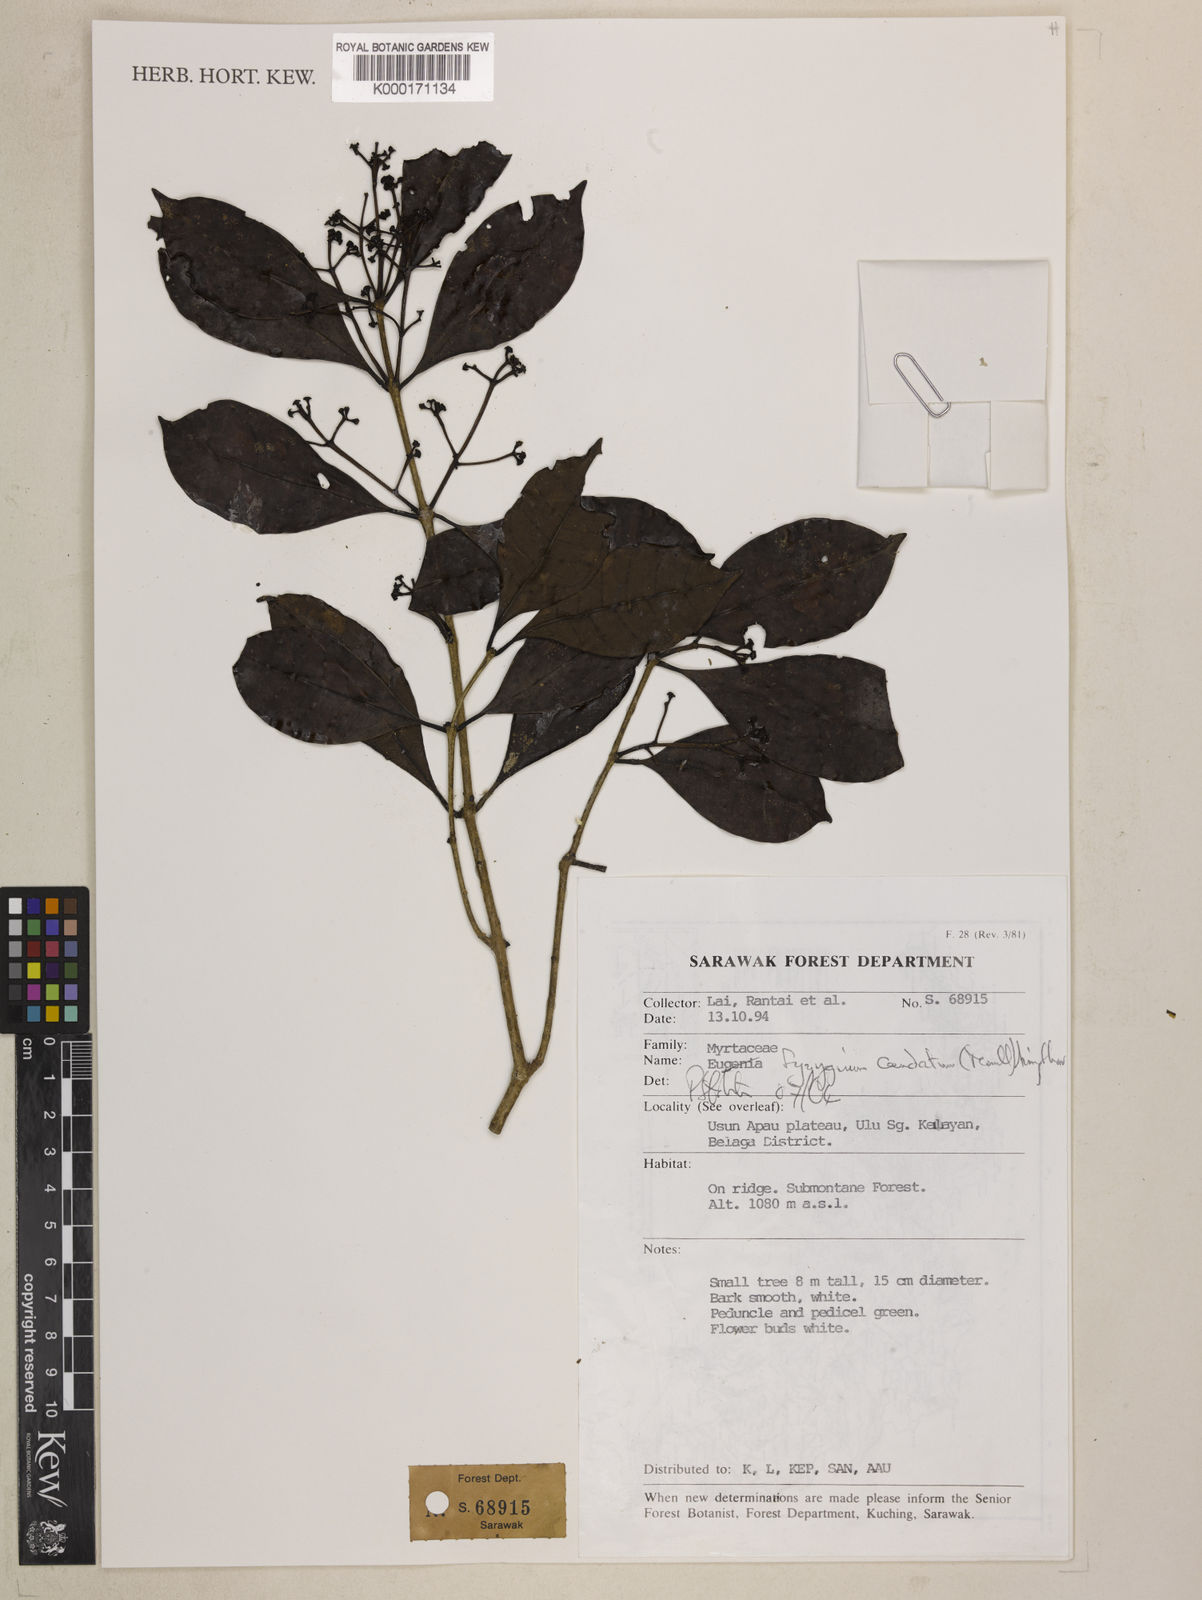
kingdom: Plantae
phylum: Tracheophyta
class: Magnoliopsida
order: Myrtales
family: Myrtaceae
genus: Syzygium
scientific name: Syzygium caudatum
